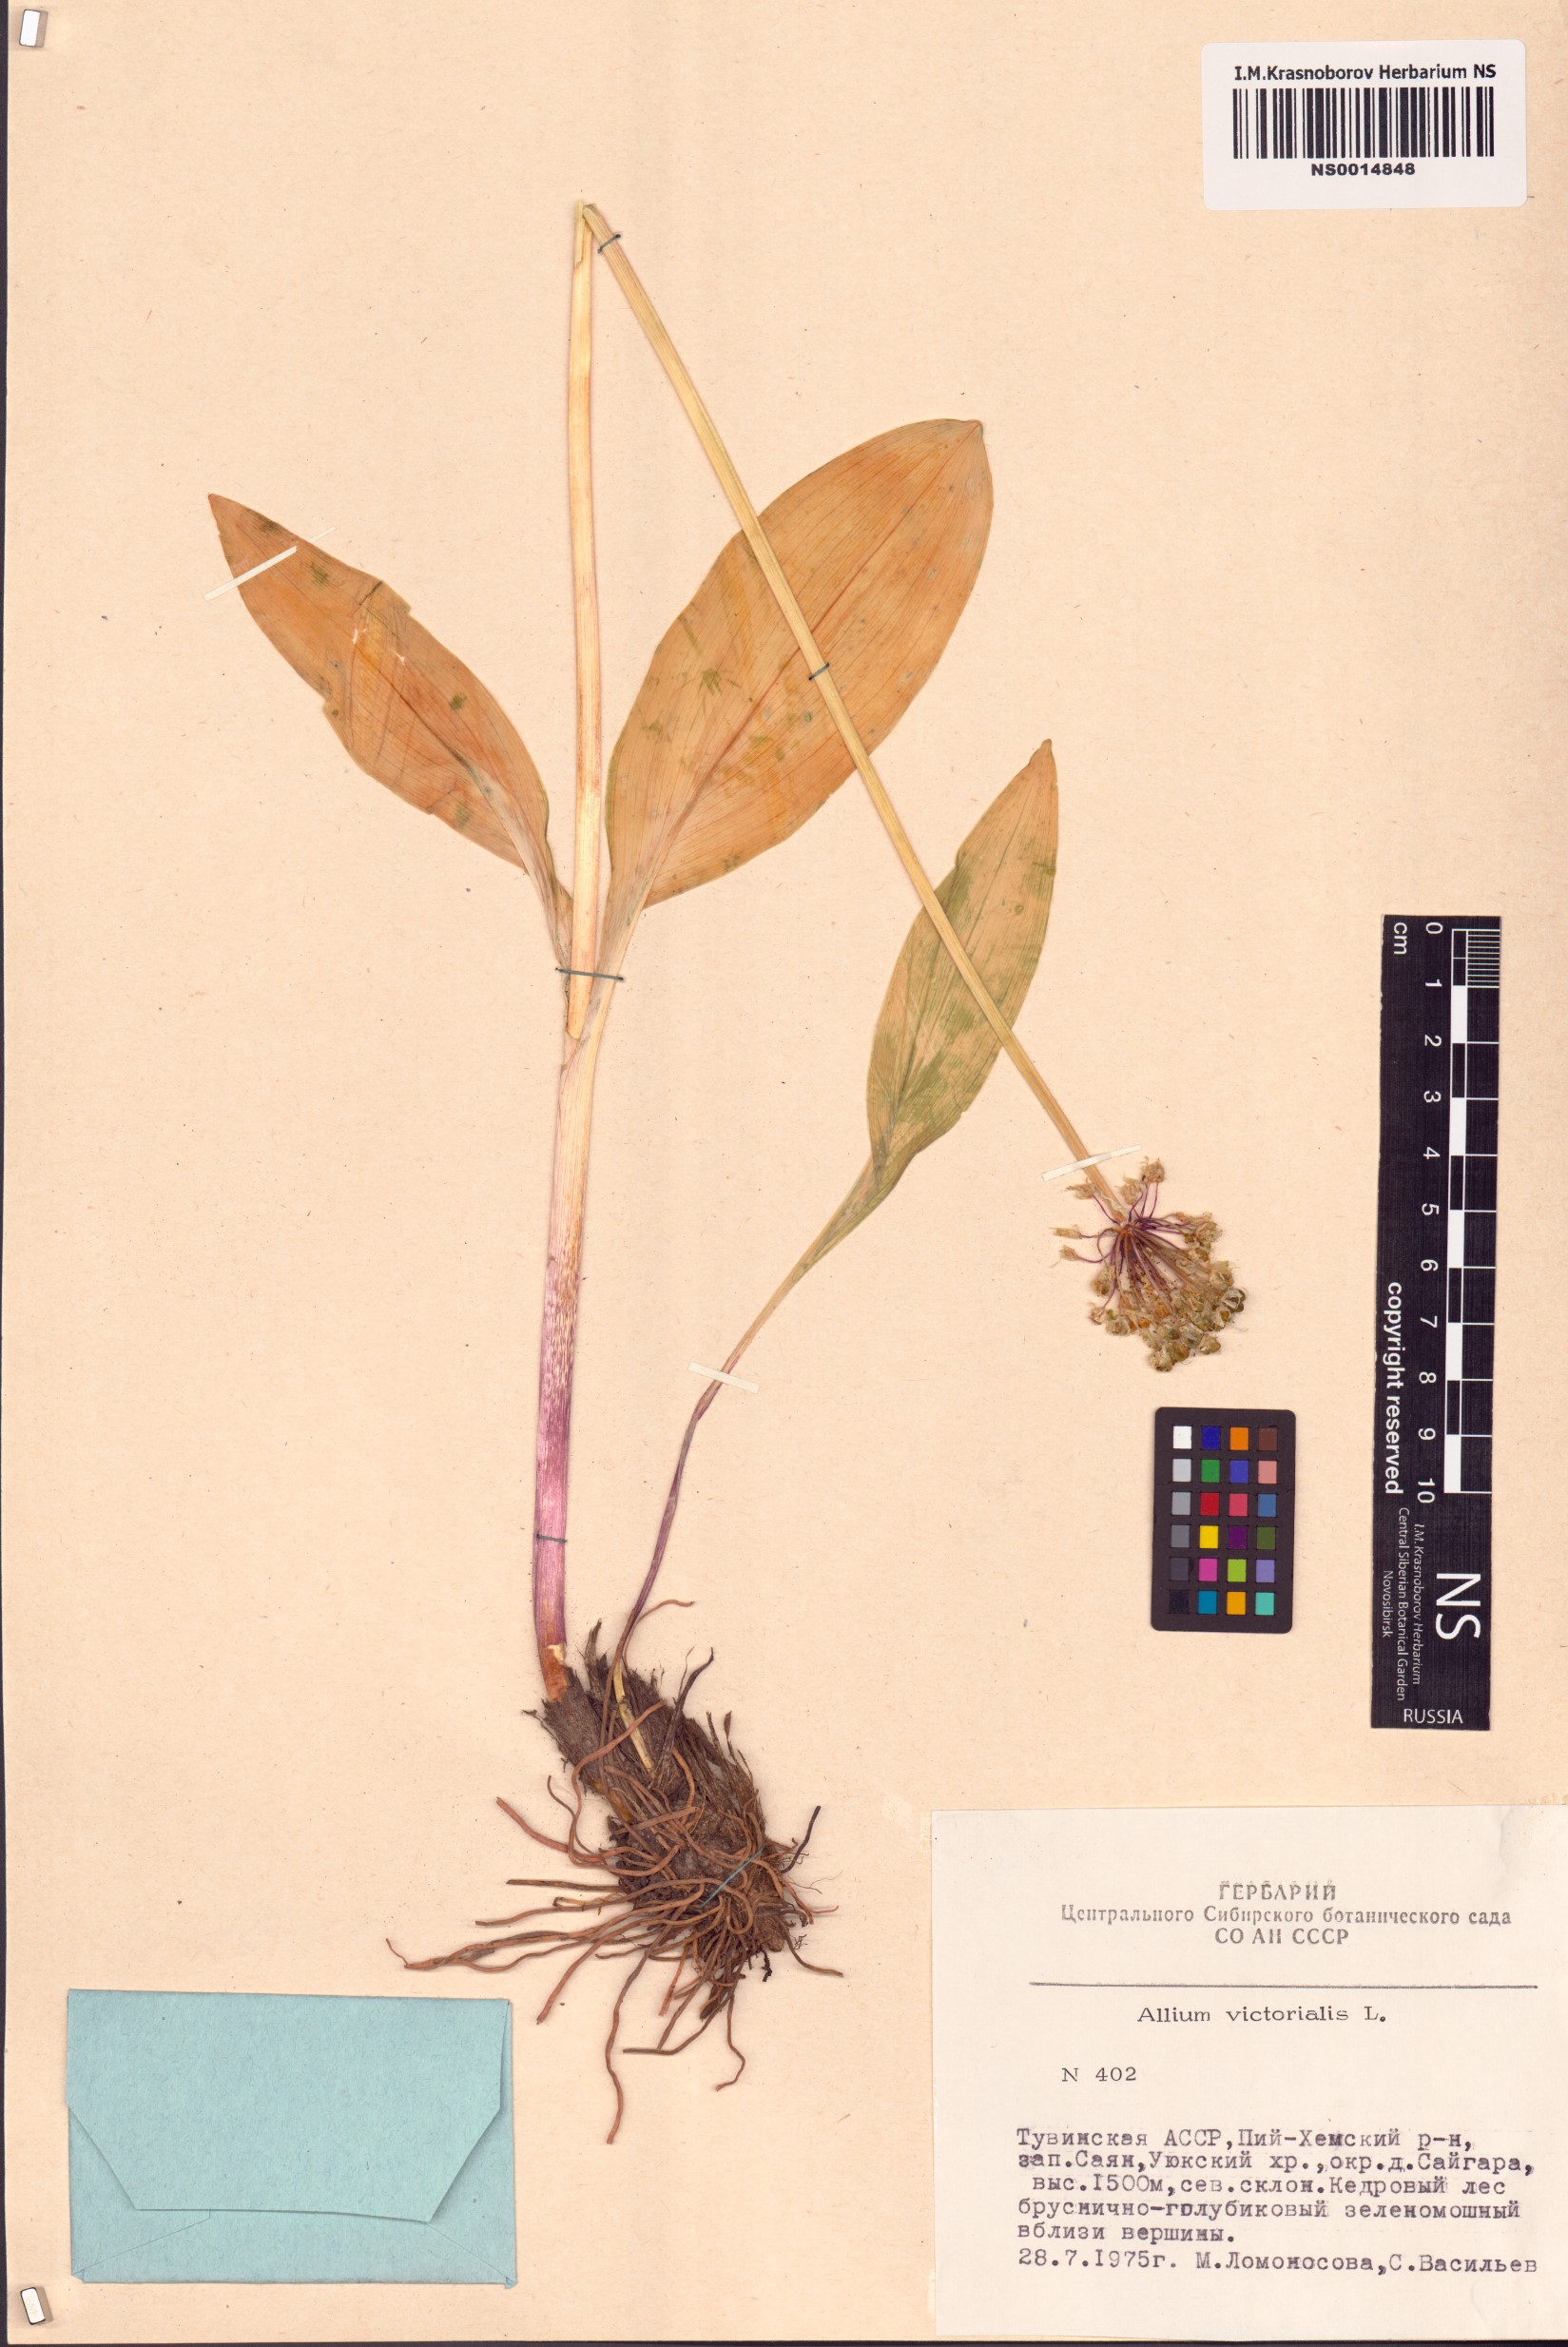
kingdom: Plantae
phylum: Tracheophyta
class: Liliopsida
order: Asparagales
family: Amaryllidaceae
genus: Allium
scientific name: Allium victorialis
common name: Alpine leek
